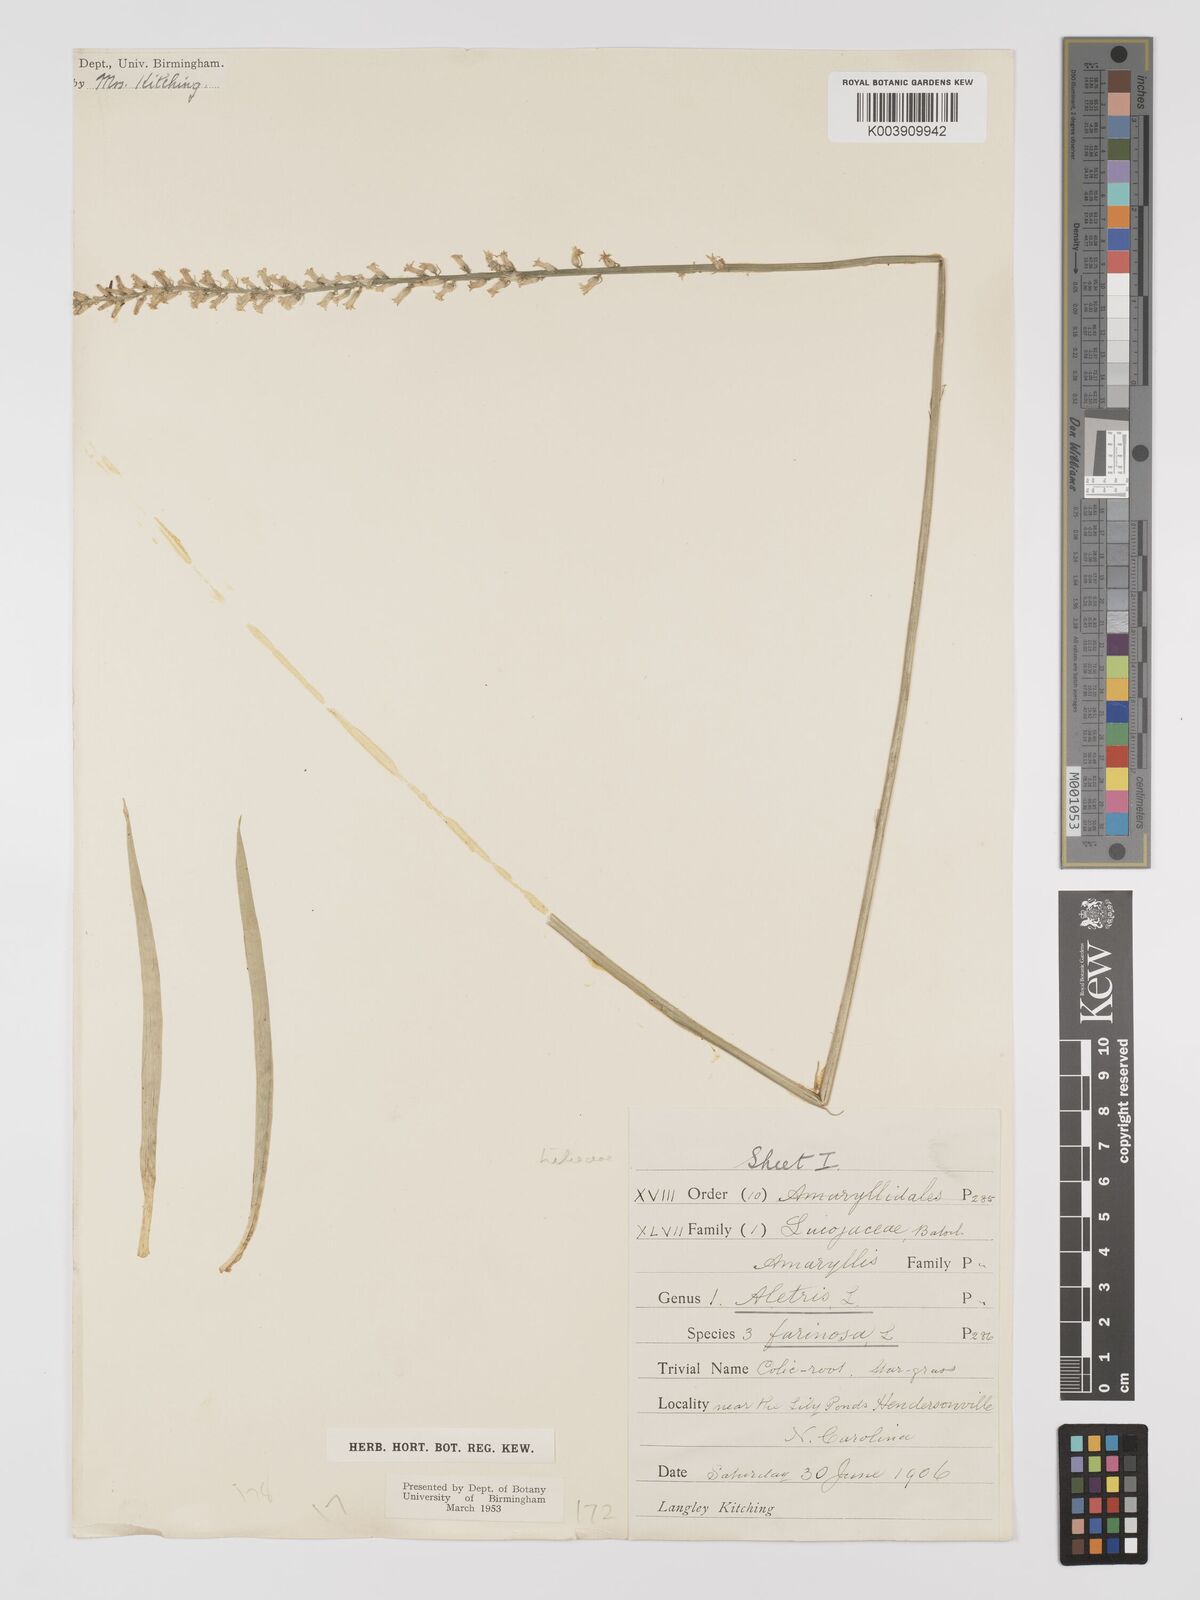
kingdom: Plantae
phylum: Tracheophyta
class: Liliopsida
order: Dioscoreales
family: Nartheciaceae
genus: Aletris
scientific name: Aletris farinosa
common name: Colicroot
